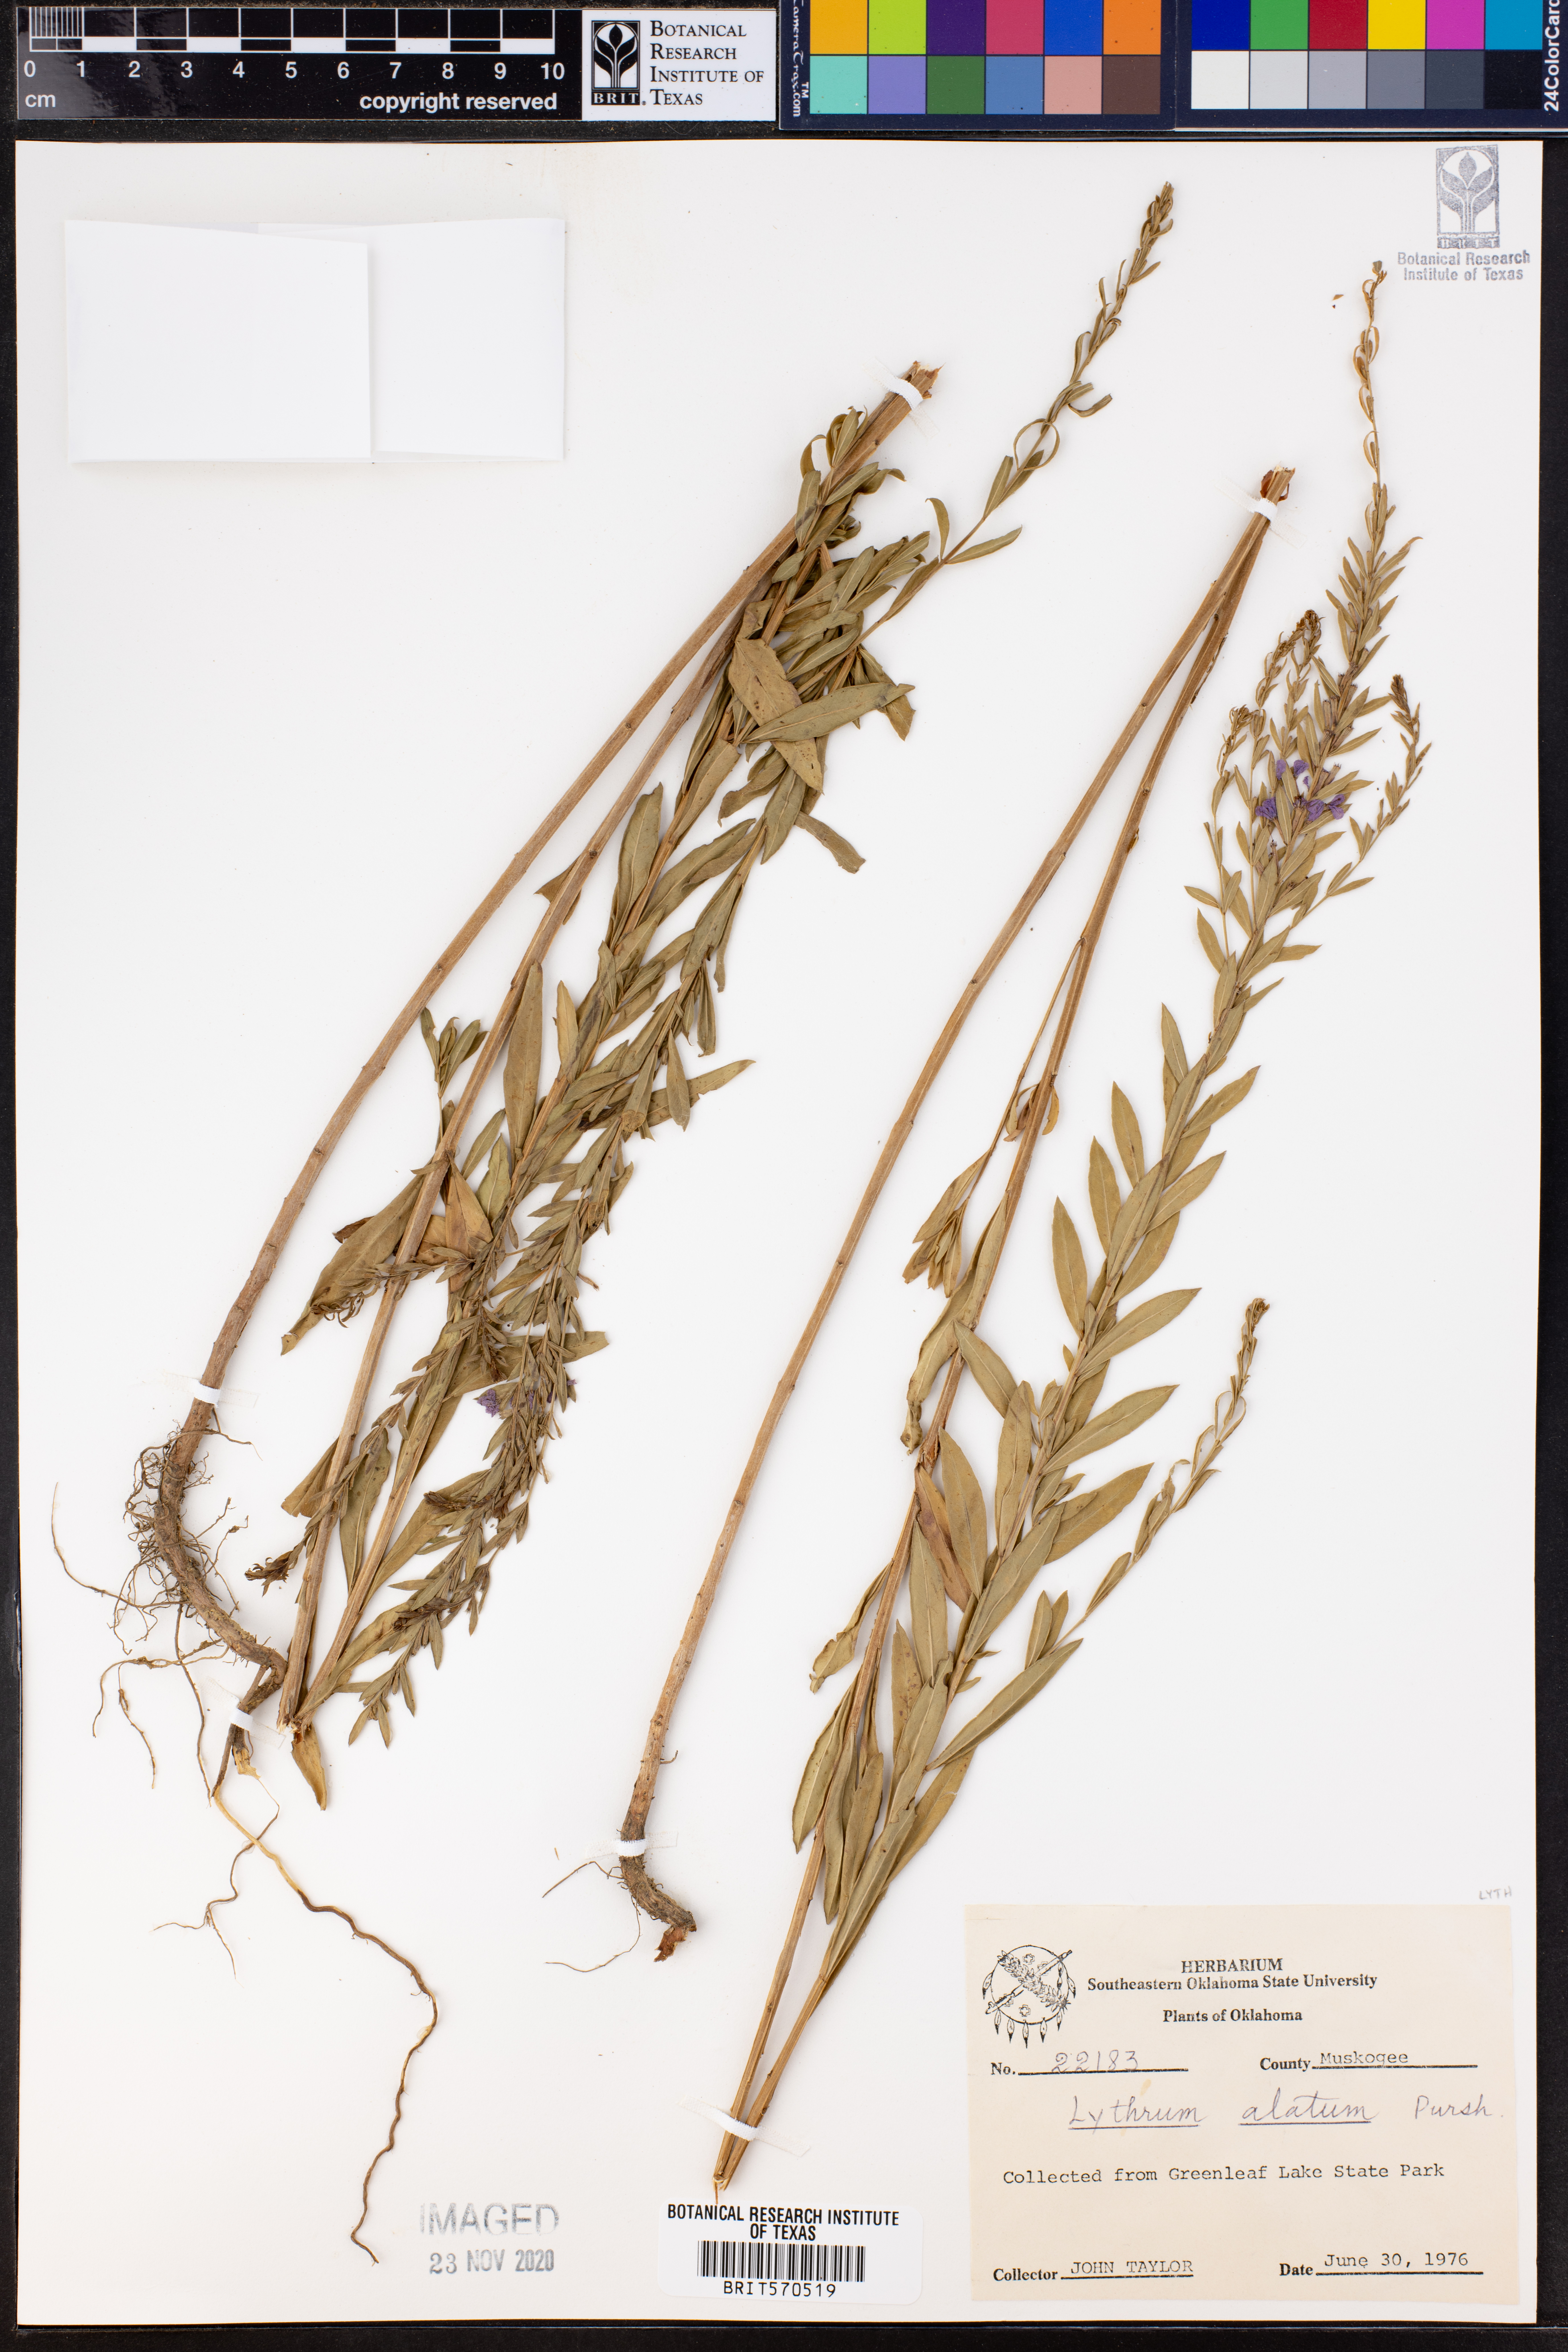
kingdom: Plantae
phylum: Tracheophyta
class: Magnoliopsida
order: Myrtales
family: Lythraceae
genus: Lythrum
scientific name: Lythrum alatum
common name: Winged loosestrife
